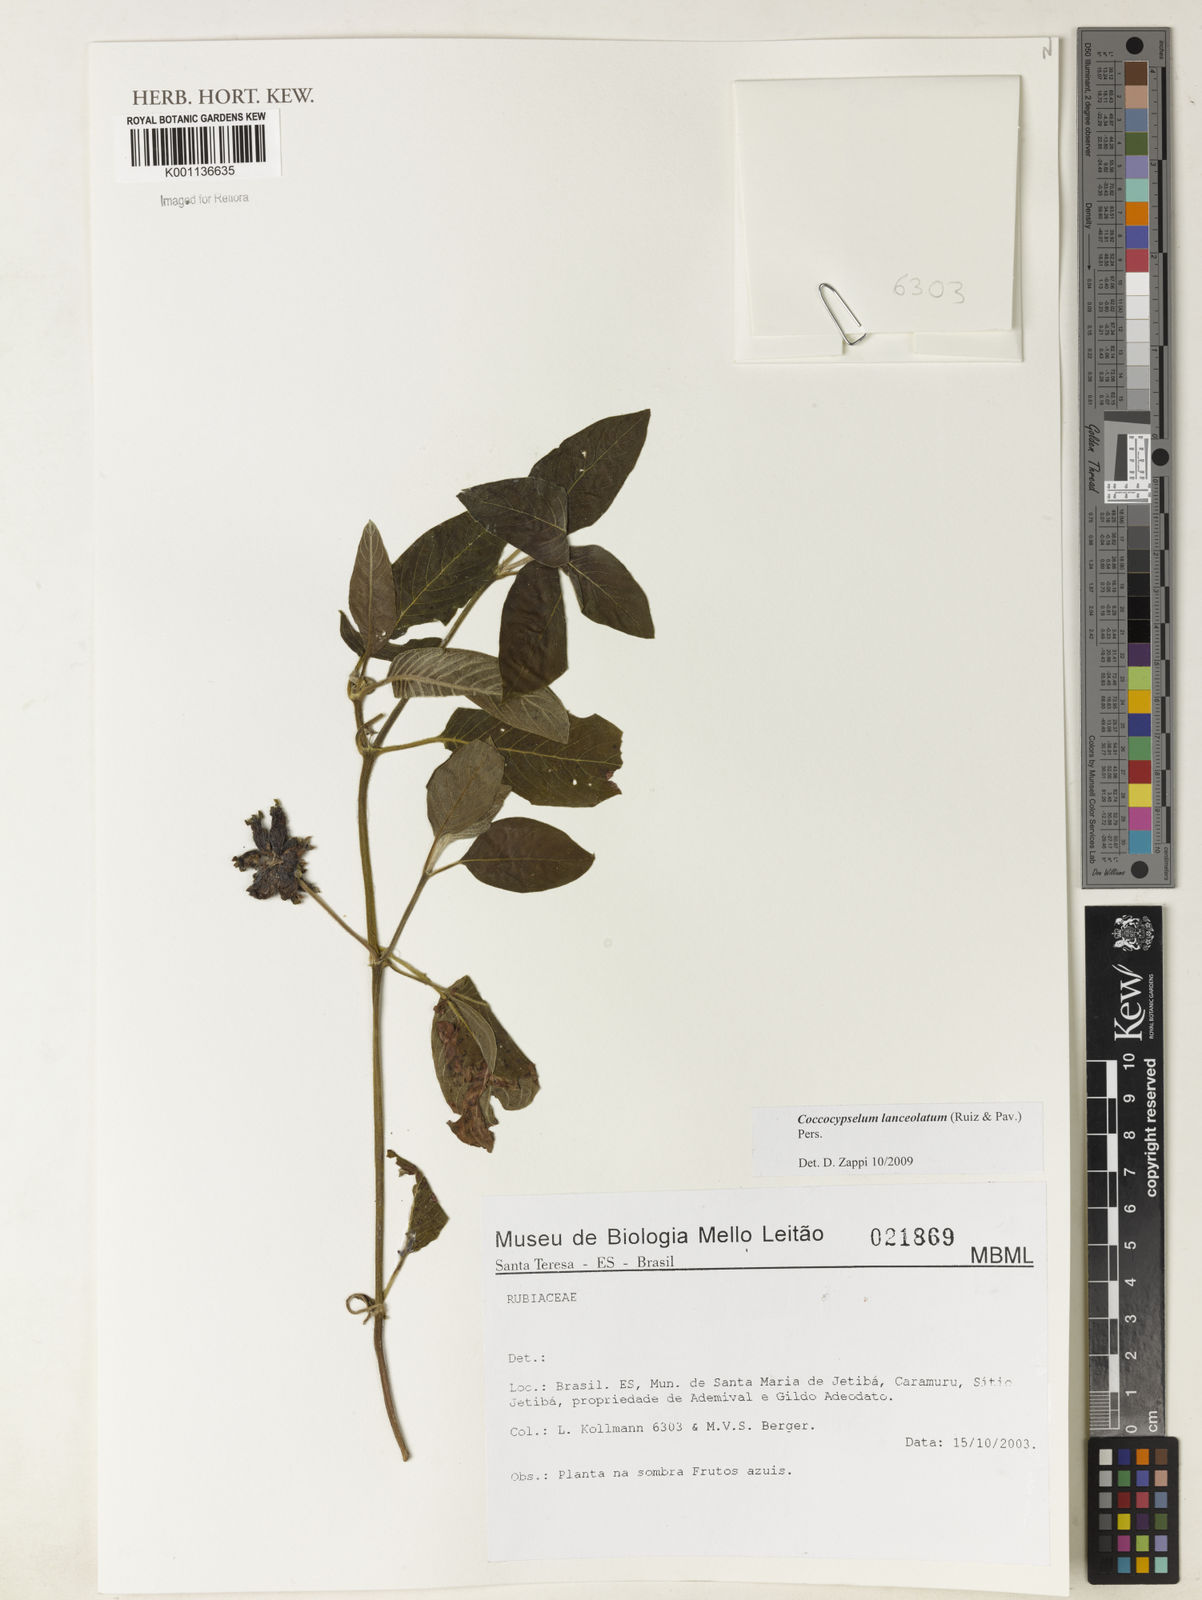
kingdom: Plantae
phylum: Tracheophyta
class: Magnoliopsida
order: Gentianales
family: Rubiaceae
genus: Coccocypselum
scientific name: Coccocypselum lanceolatum
